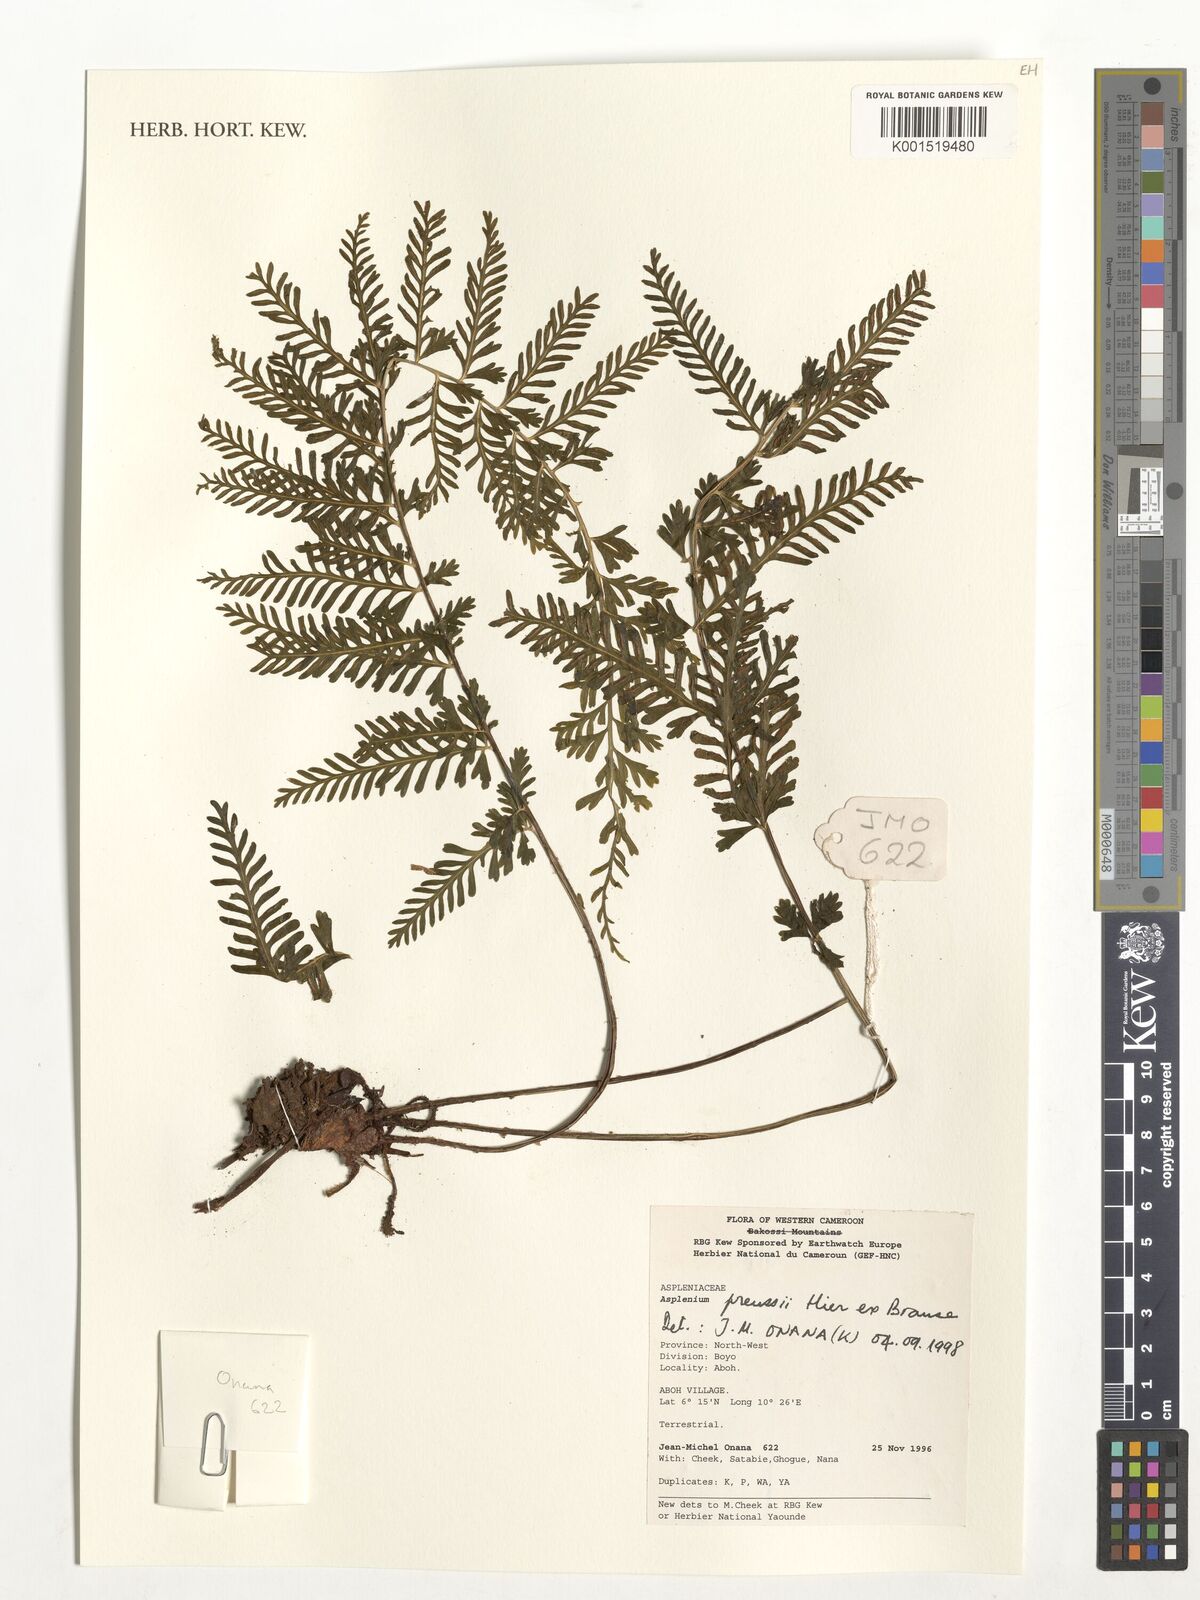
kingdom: Plantae
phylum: Tracheophyta
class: Polypodiopsida
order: Polypodiales
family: Aspleniaceae
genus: Asplenium
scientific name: Asplenium preussii
